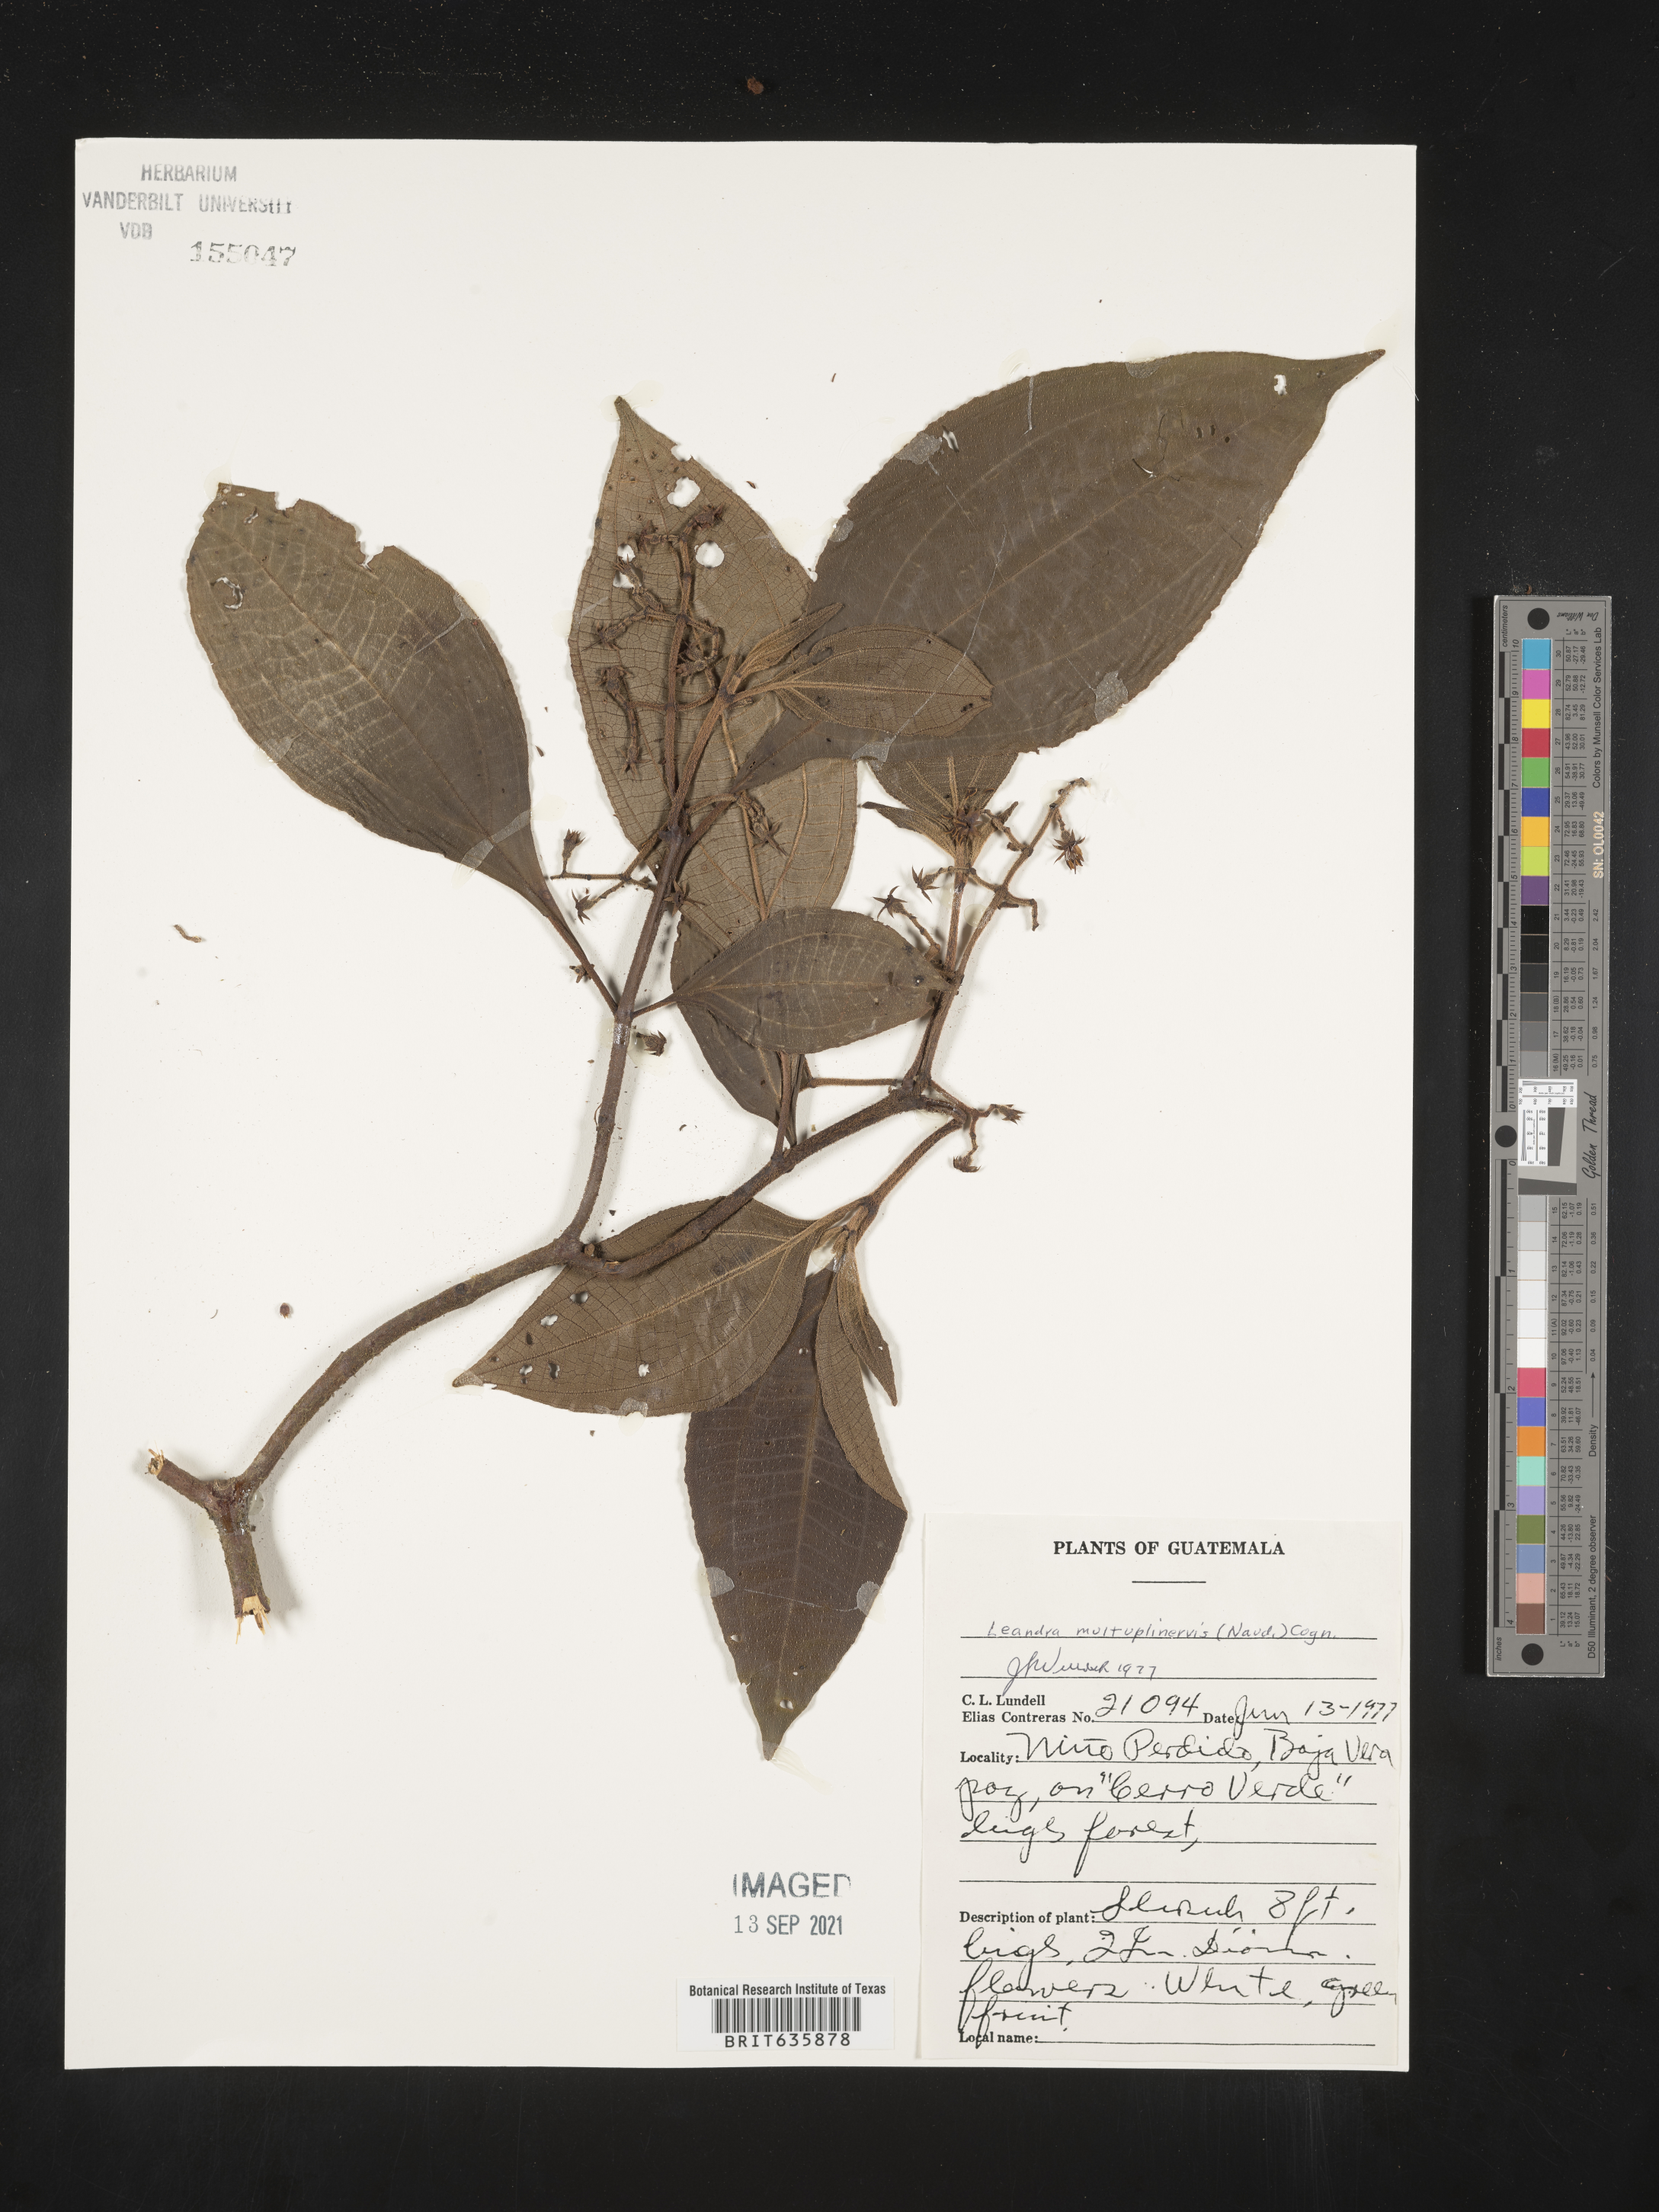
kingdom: Plantae
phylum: Tracheophyta
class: Magnoliopsida
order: Myrtales
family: Melastomataceae
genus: Miconia
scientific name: Miconia
